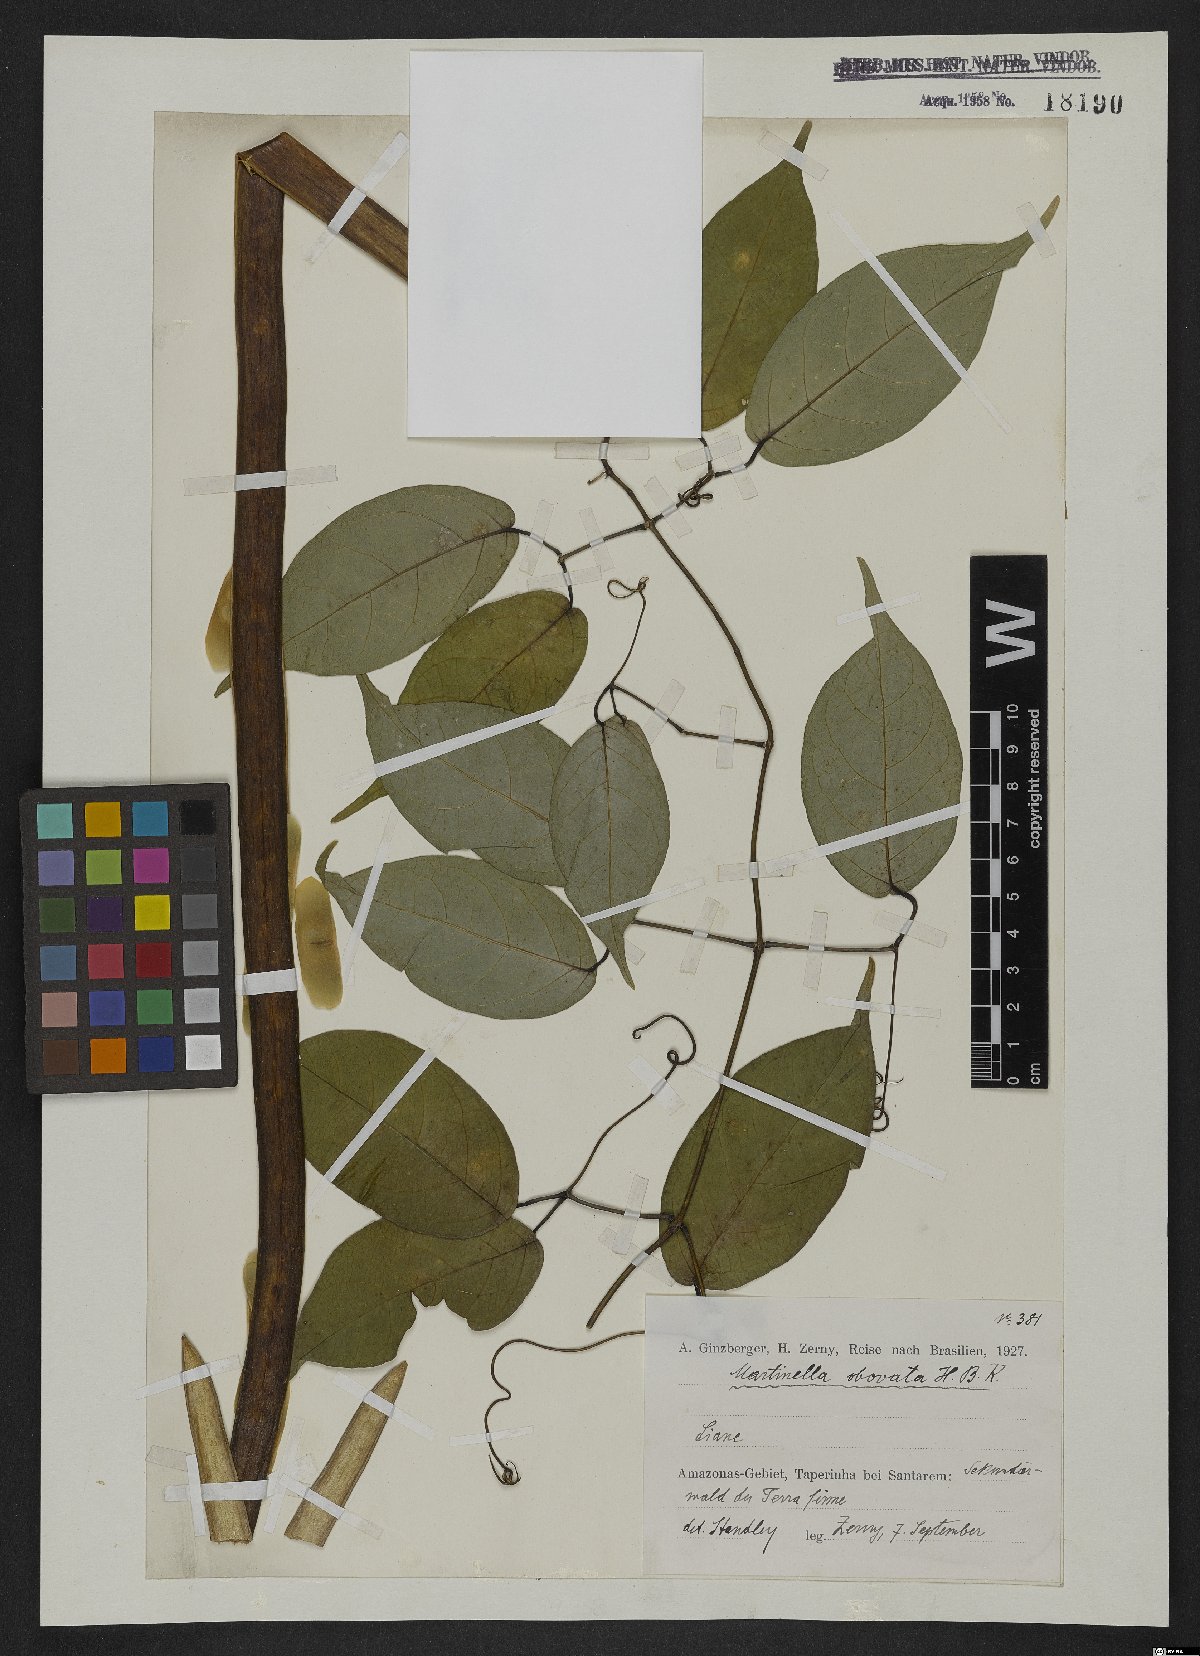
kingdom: Animalia
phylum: Arthropoda
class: Insecta
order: Coleoptera
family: Chrysomelidae
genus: Martinella
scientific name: Martinella obovata
